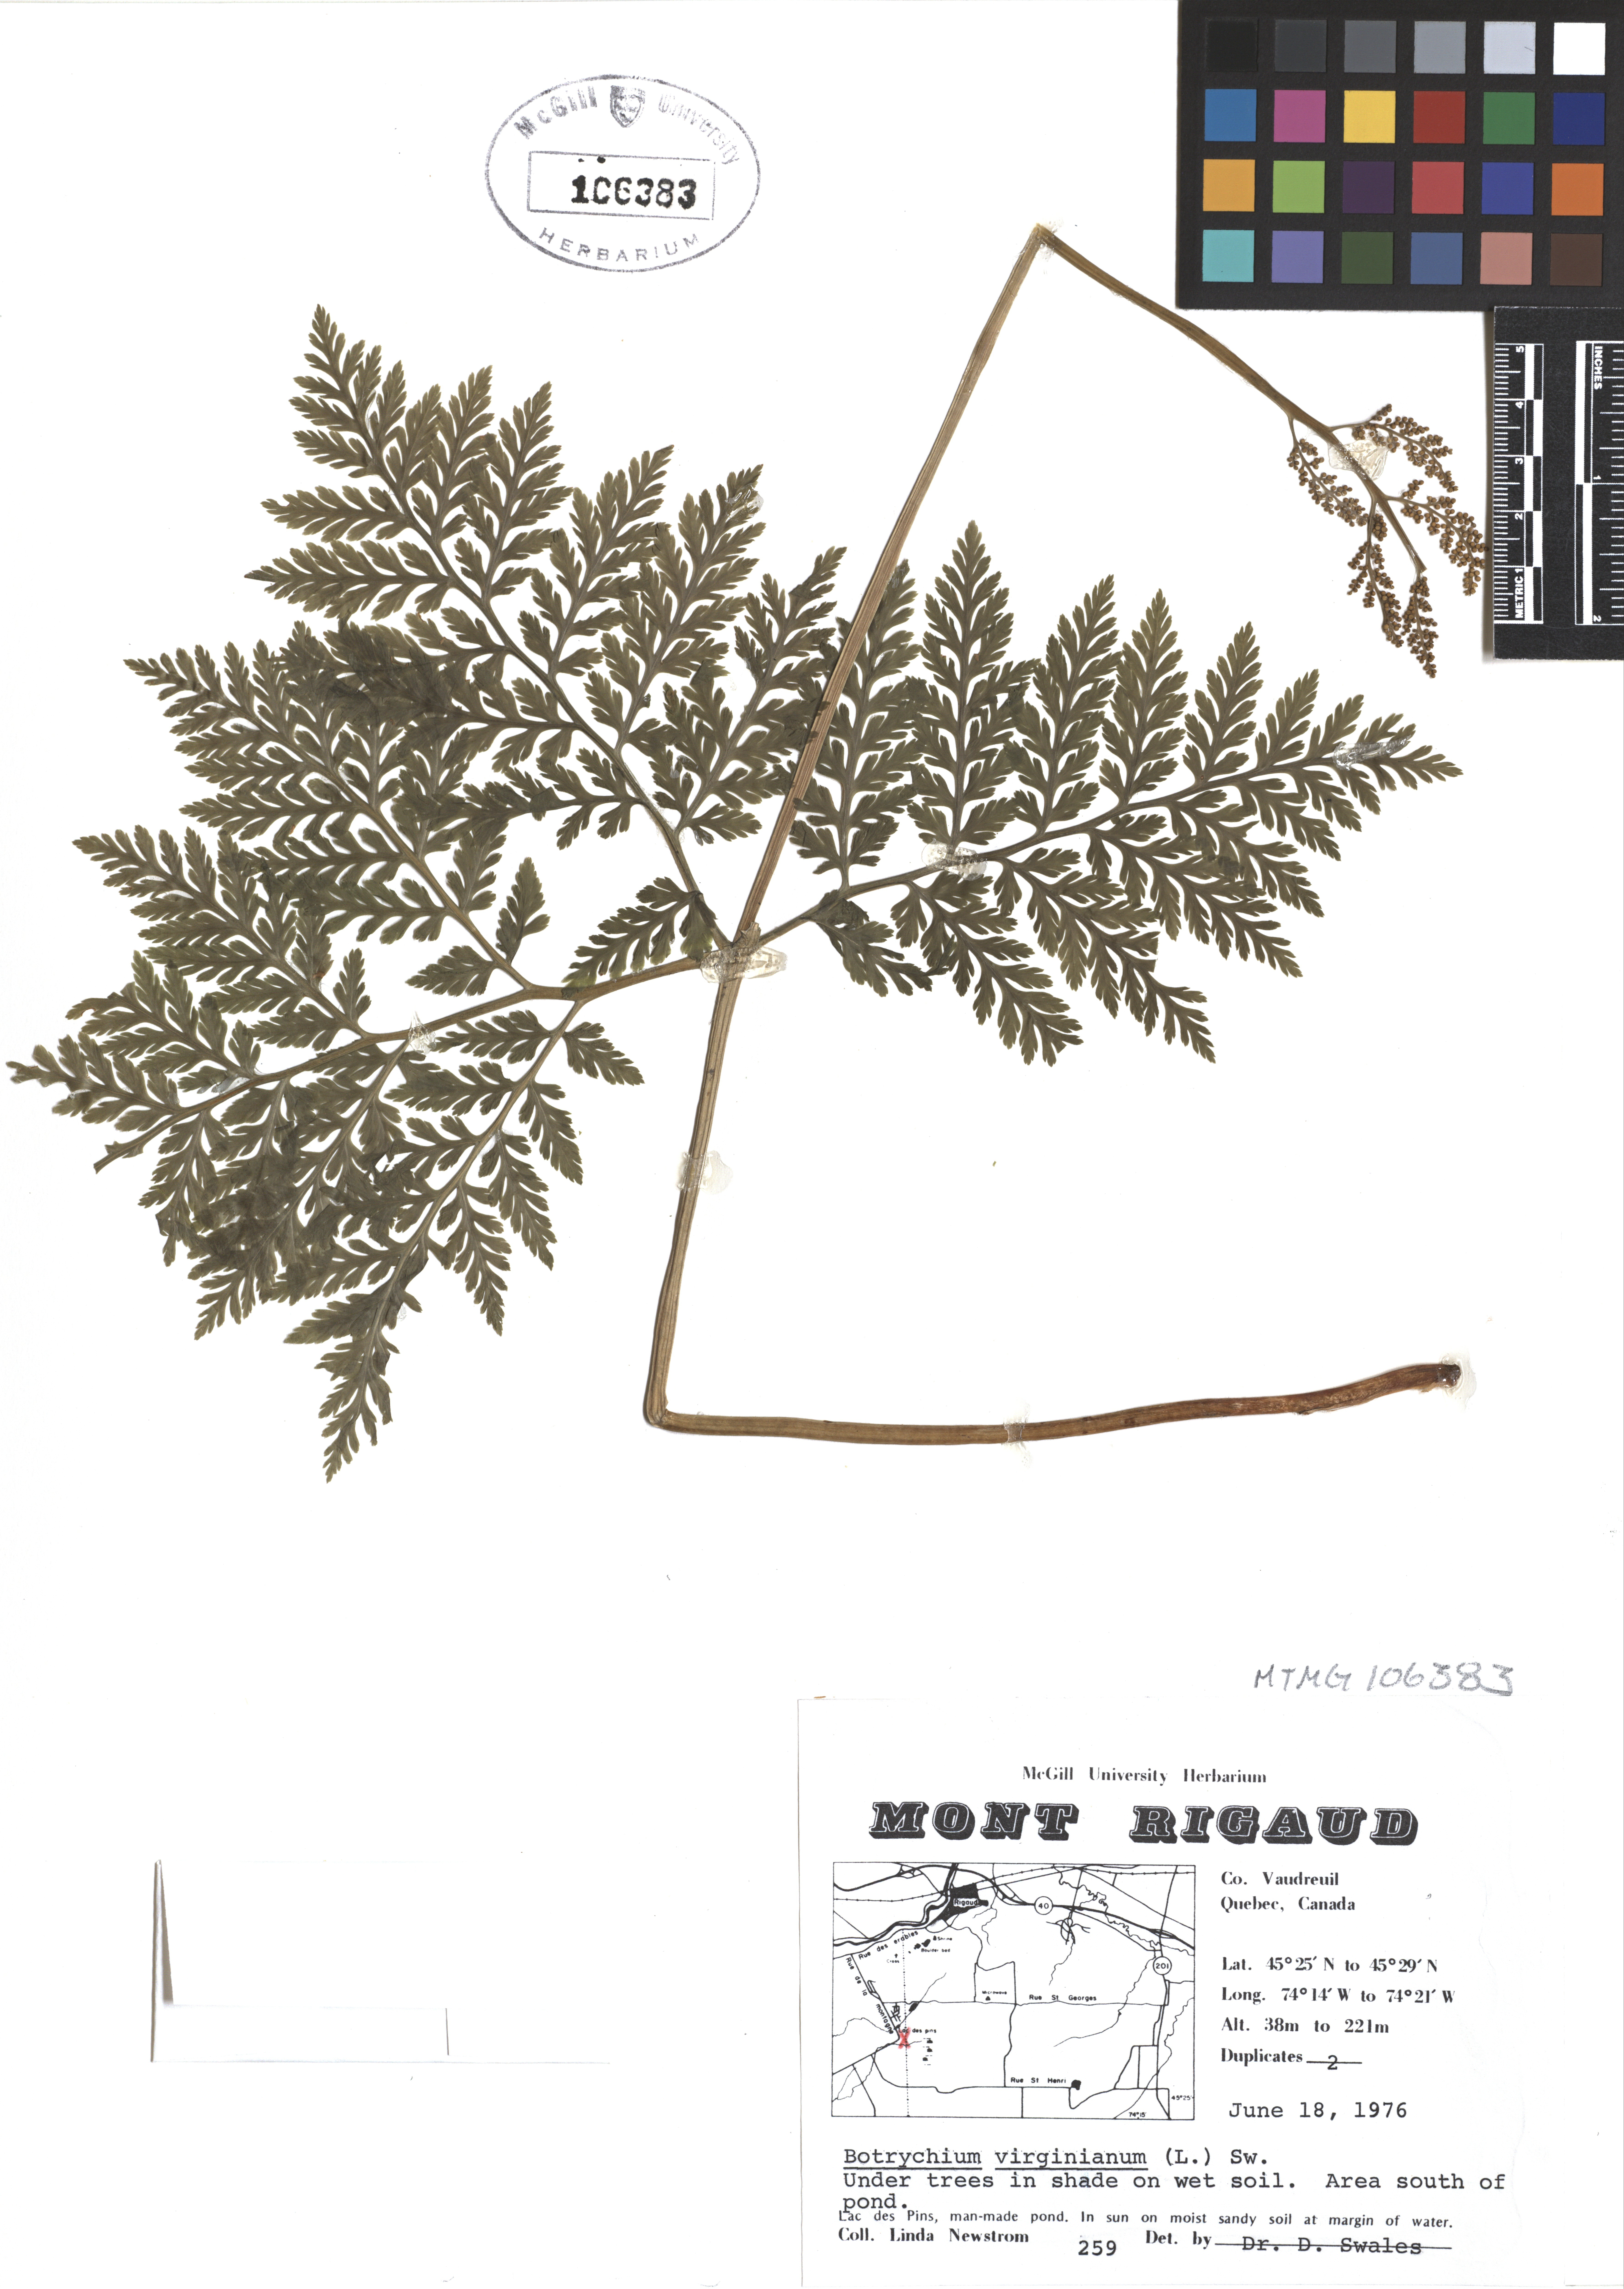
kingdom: Plantae
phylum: Tracheophyta
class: Polypodiopsida
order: Ophioglossales
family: Ophioglossaceae
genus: Botrypus
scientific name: Botrypus virginianus
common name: Common grapefern
